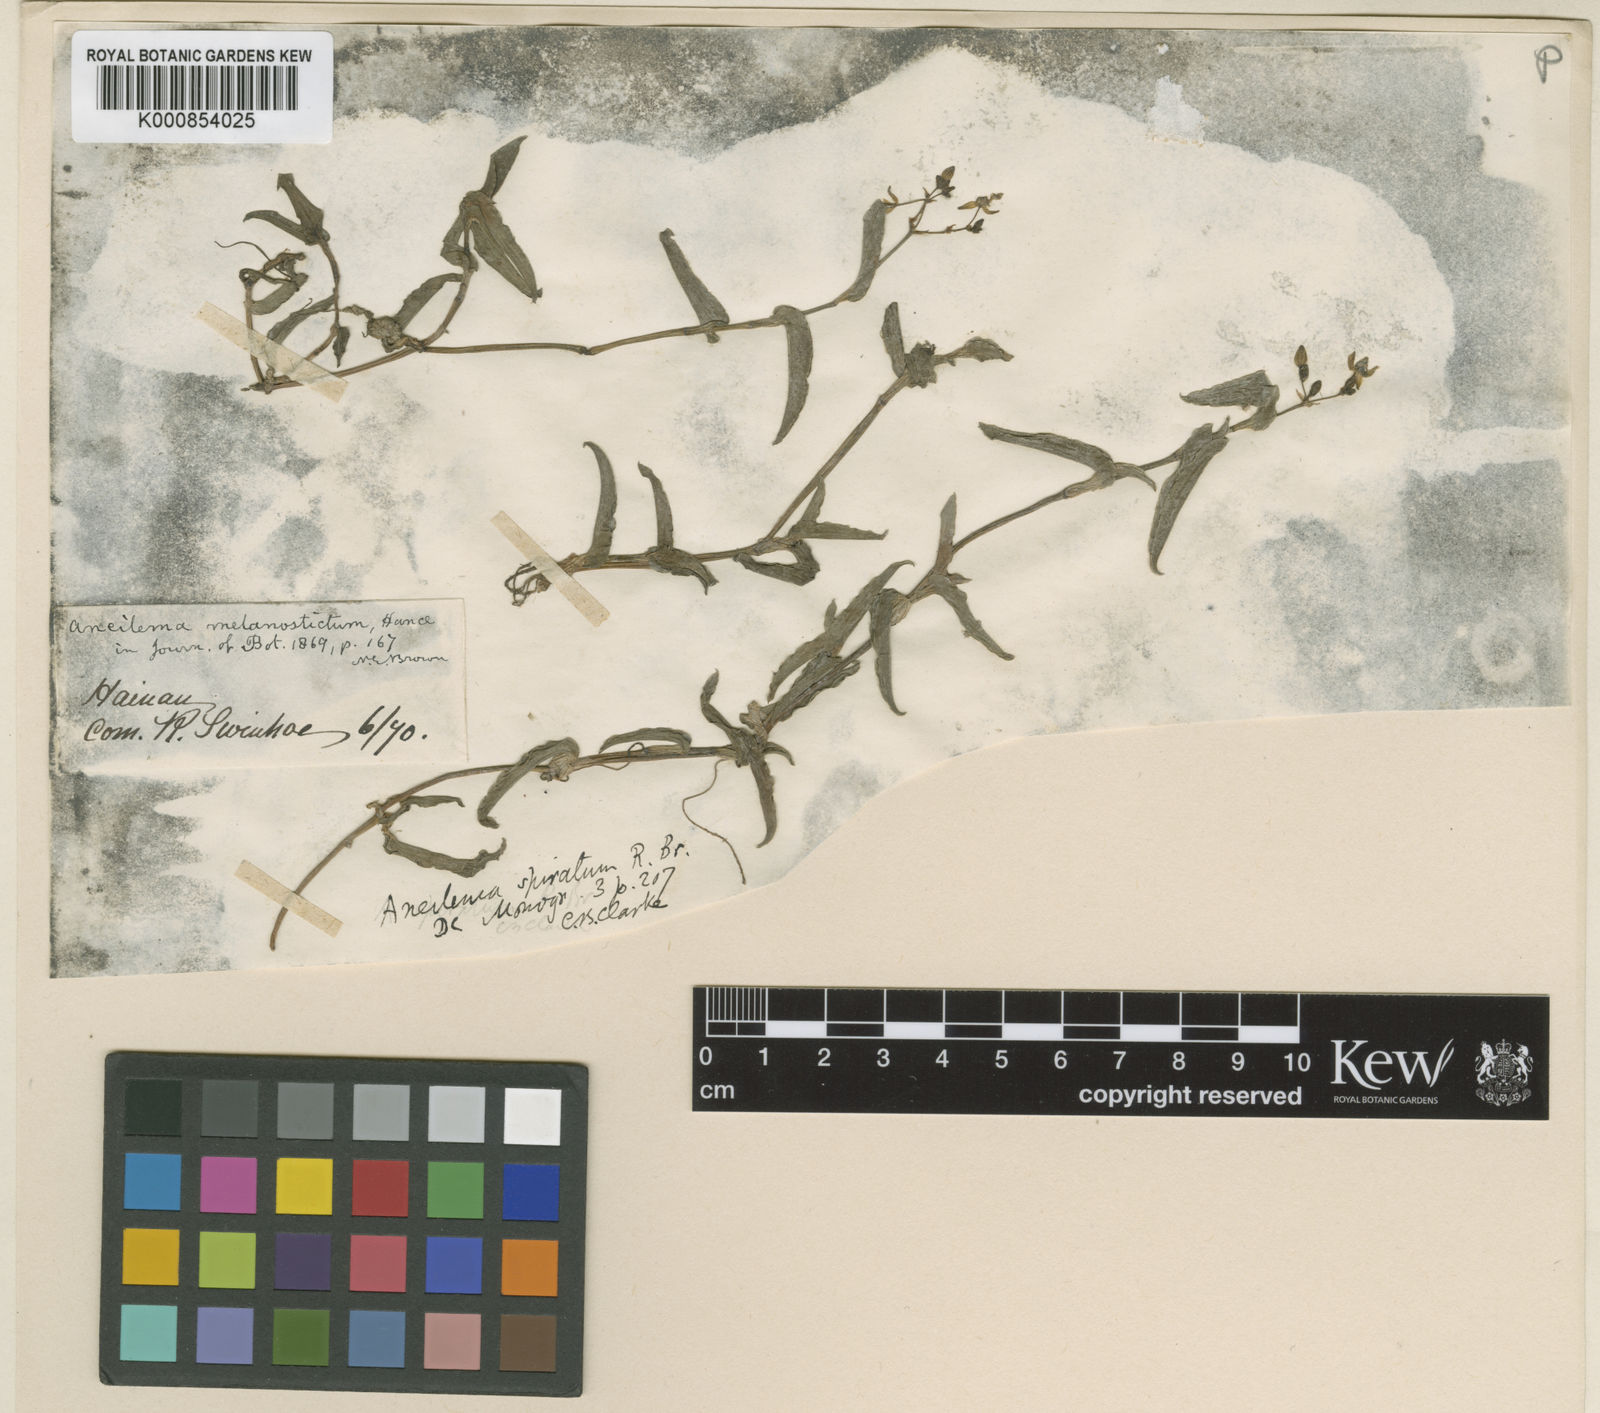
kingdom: Plantae
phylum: Tracheophyta
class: Liliopsida
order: Commelinales
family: Commelinaceae
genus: Murdannia
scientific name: Murdannia
